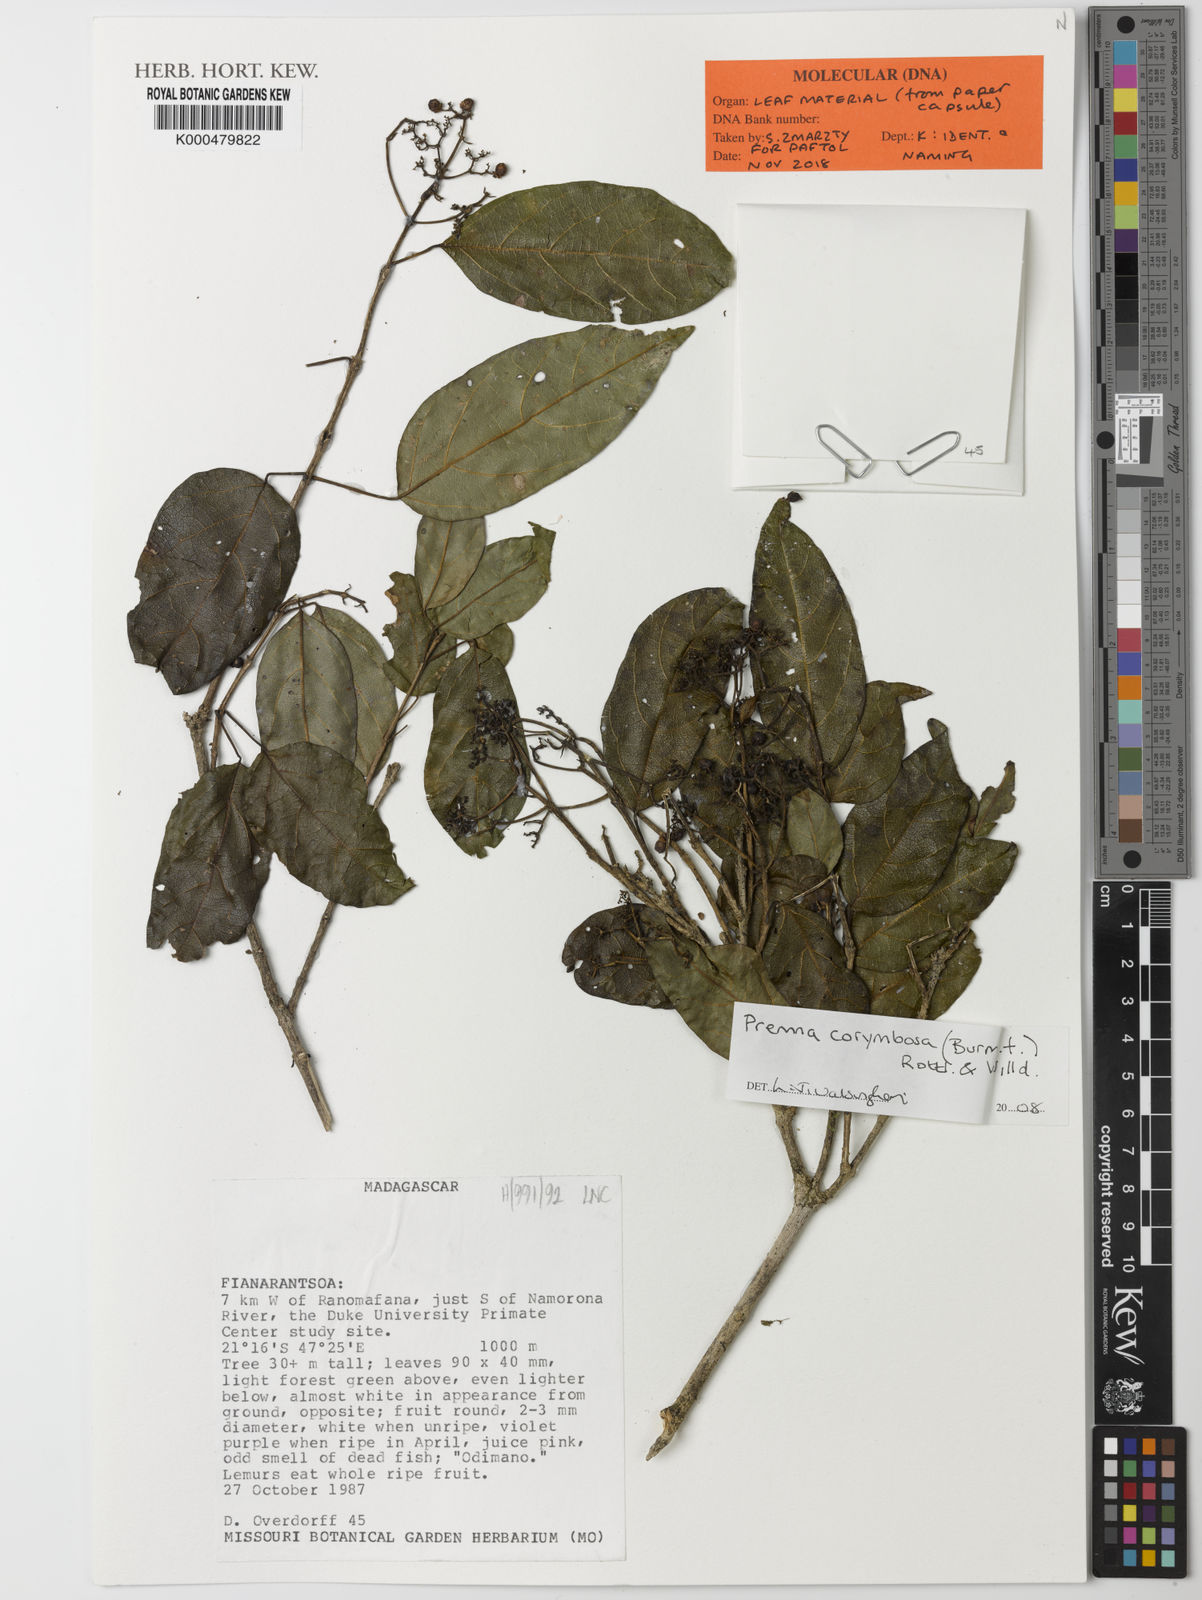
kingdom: Plantae
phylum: Tracheophyta
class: Magnoliopsida
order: Lamiales
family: Lamiaceae
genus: Premna
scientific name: Premna corymbosa
